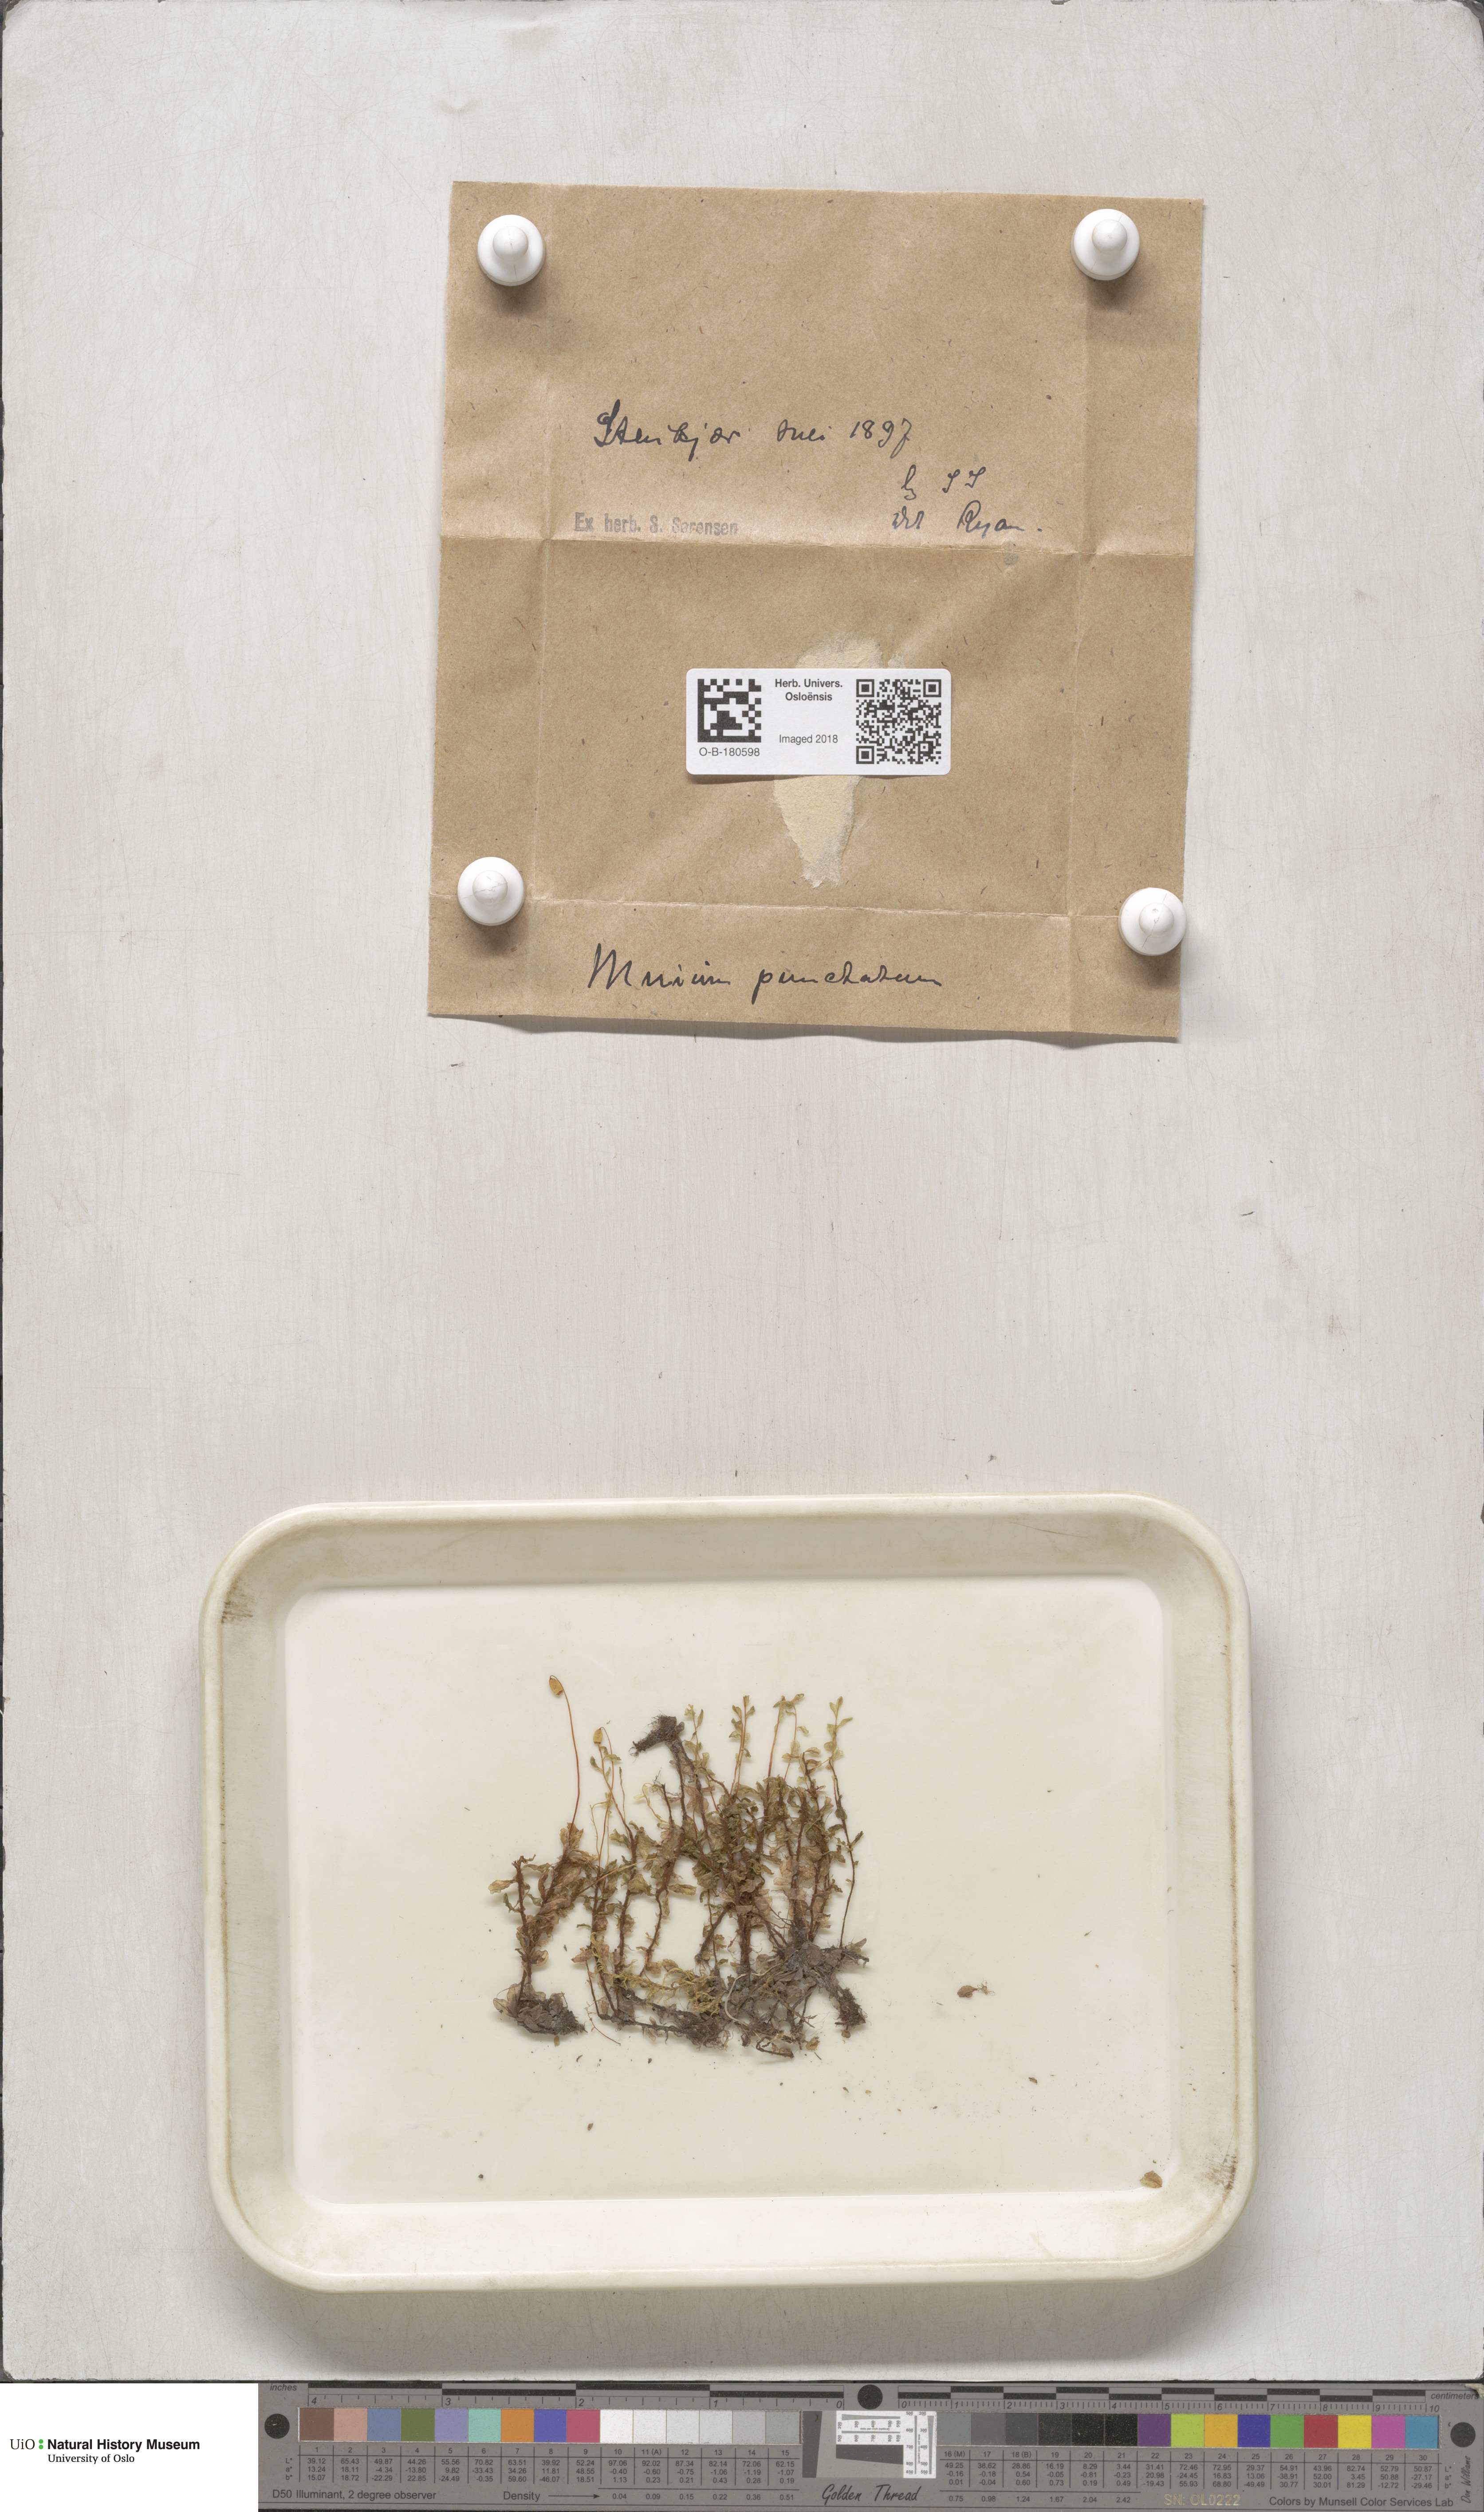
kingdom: Plantae
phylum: Bryophyta
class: Bryopsida
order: Bryales
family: Mniaceae
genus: Rhizomnium
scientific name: Rhizomnium punctatum
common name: Dotted leafy moss
